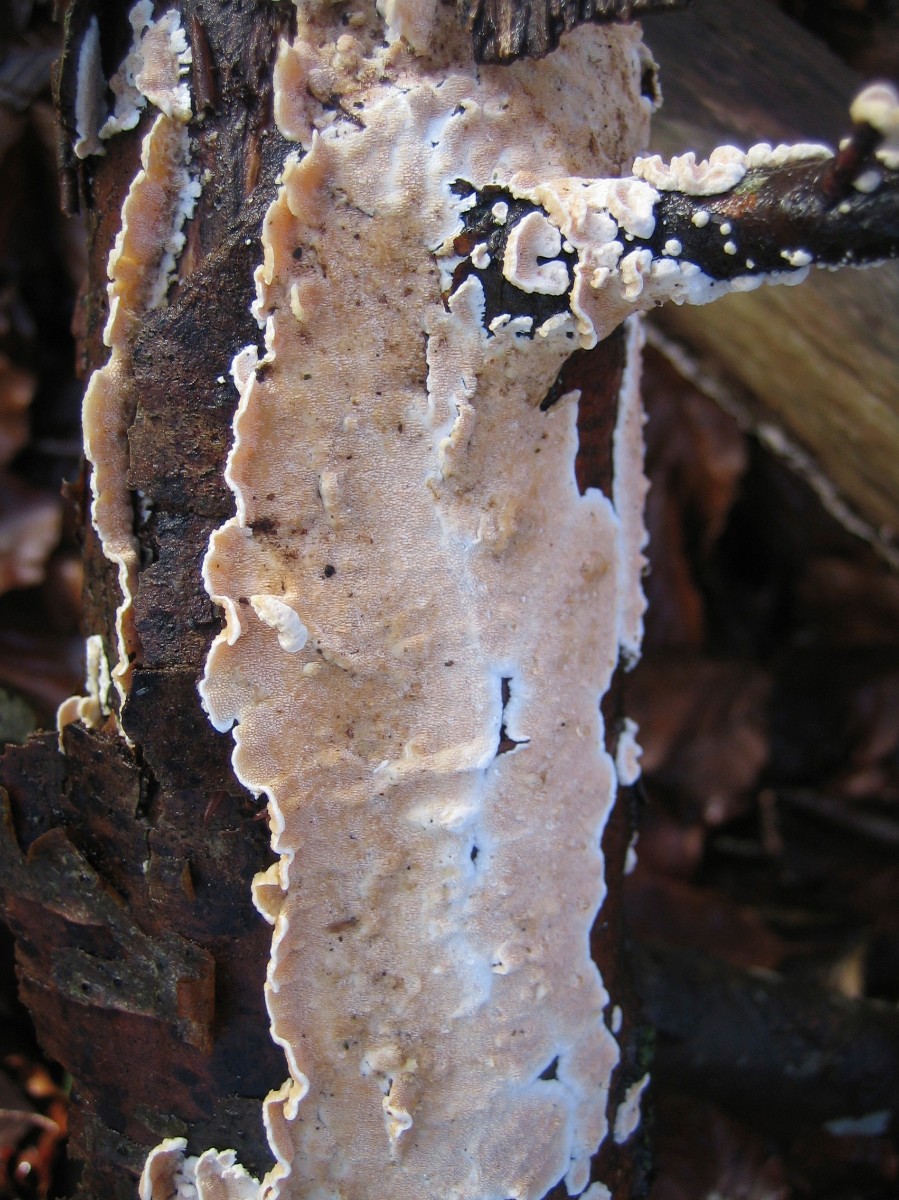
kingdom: Fungi
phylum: Basidiomycota
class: Agaricomycetes
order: Polyporales
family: Steccherinaceae
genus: Steccherinum
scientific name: Steccherinum
